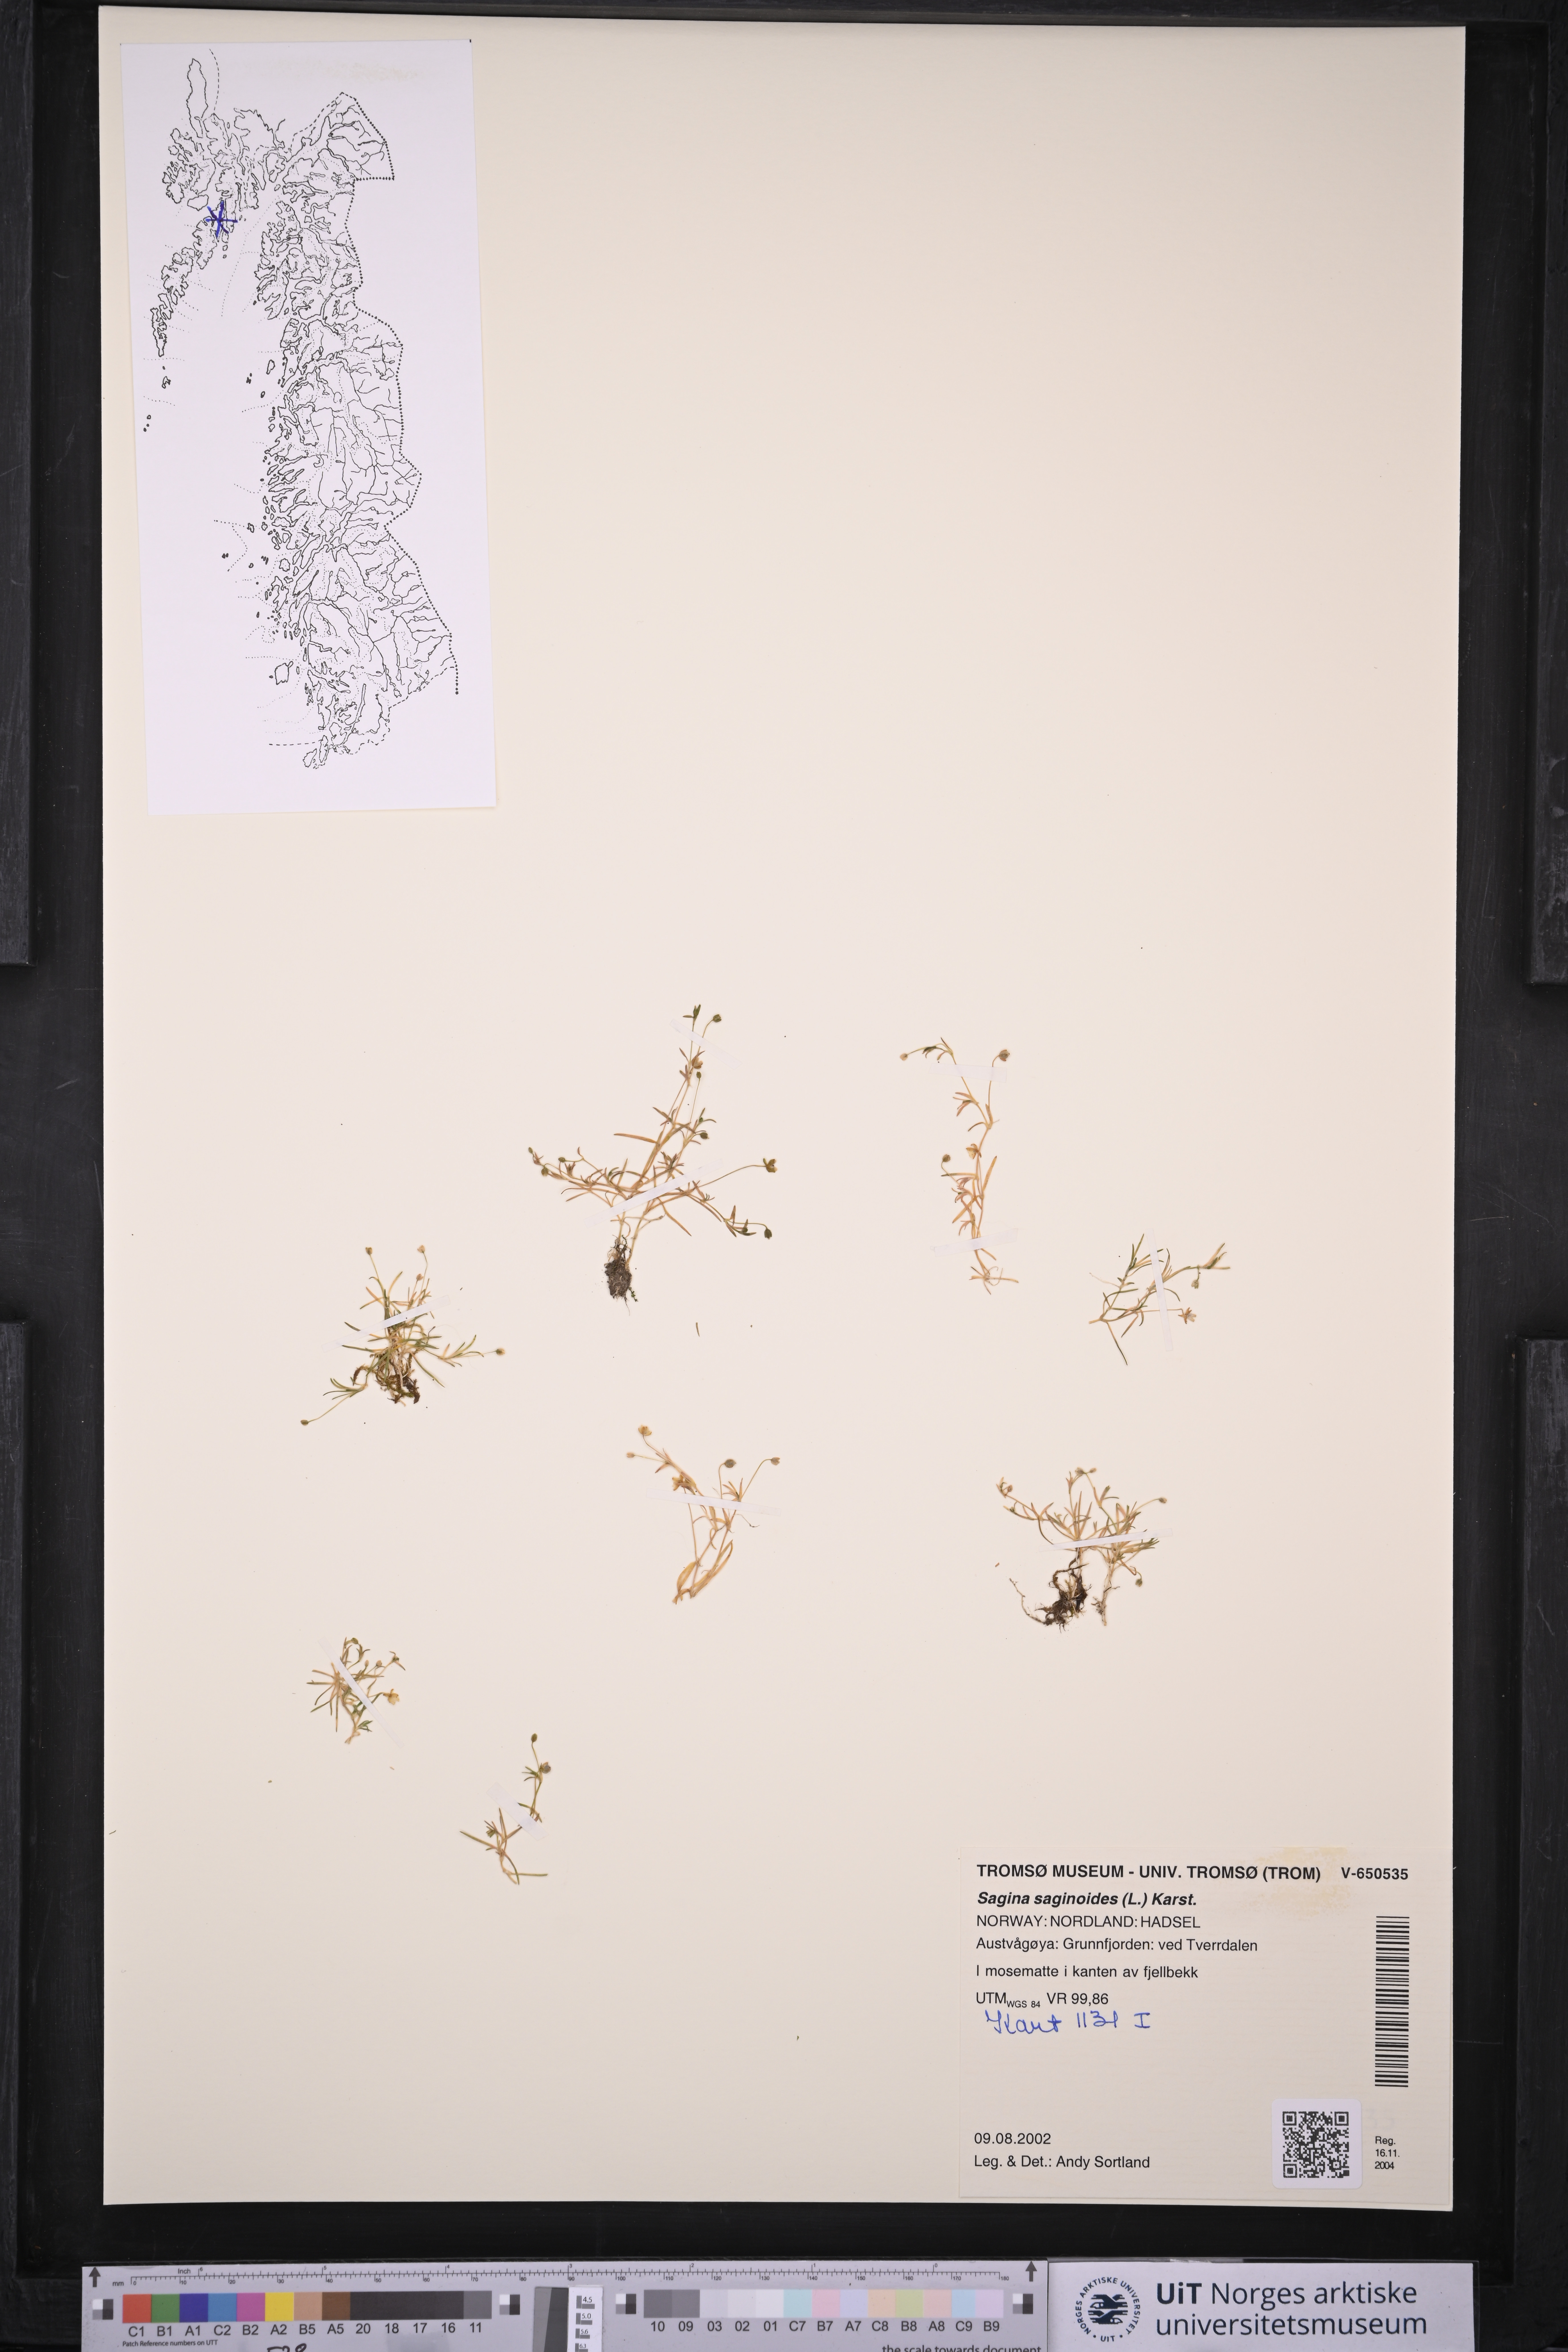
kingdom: Plantae
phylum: Tracheophyta
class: Magnoliopsida
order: Caryophyllales
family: Caryophyllaceae
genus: Sagina
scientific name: Sagina saginoides
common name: Alpine pearlwort
